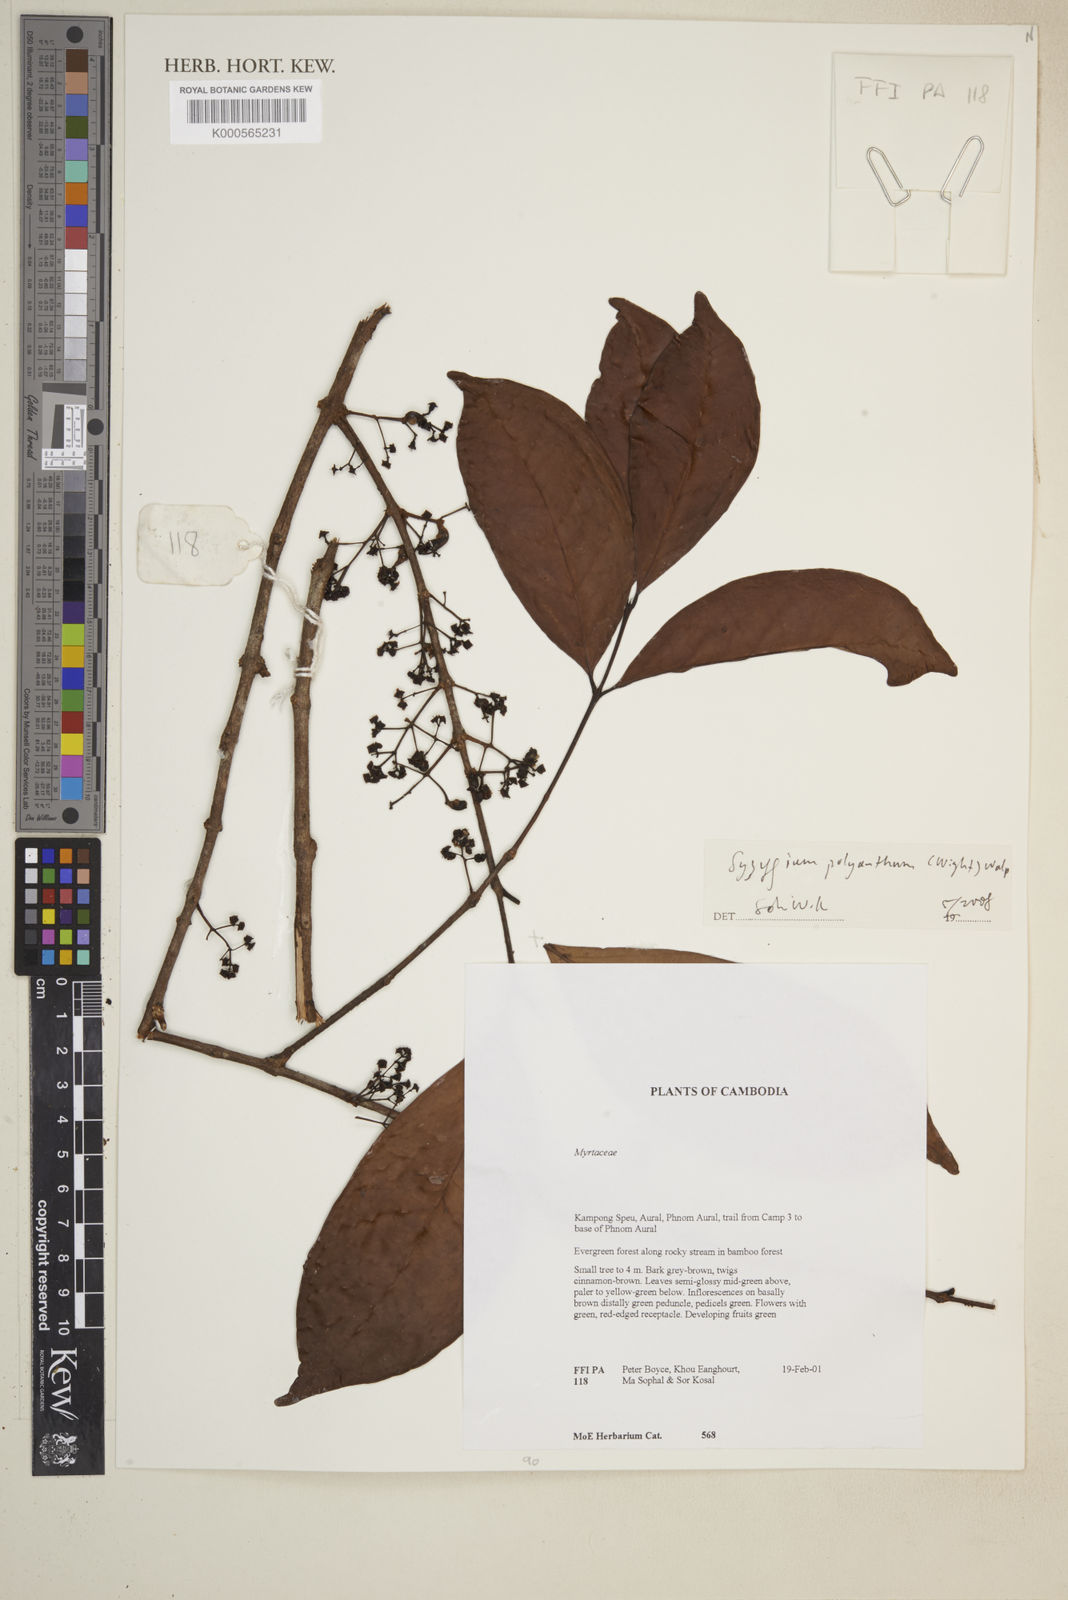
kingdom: Plantae
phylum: Tracheophyta
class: Magnoliopsida
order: Myrtales
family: Myrtaceae
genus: Syzygium
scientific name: Syzygium polyanthum
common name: Indonesian bayleaf
